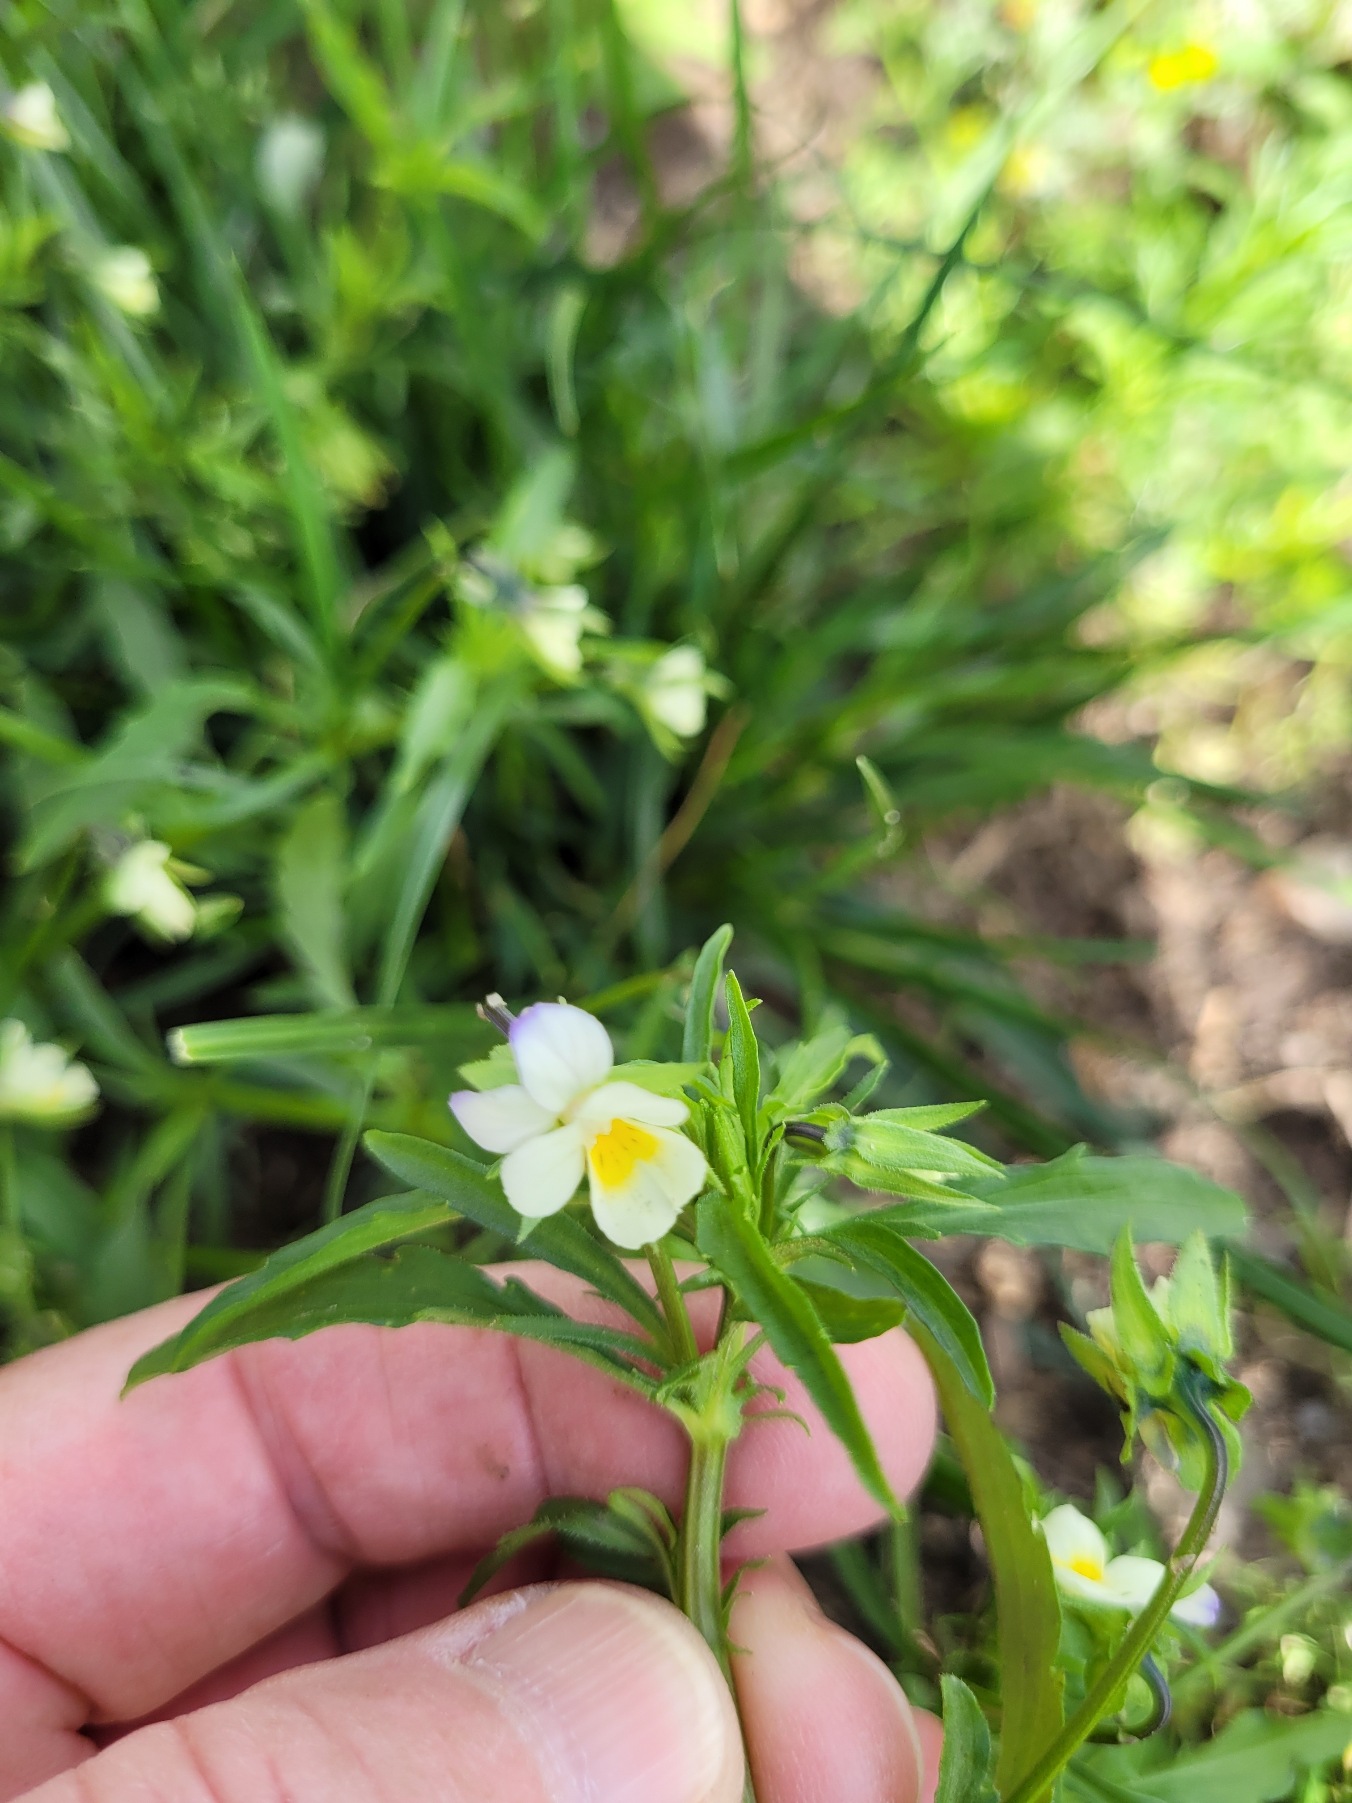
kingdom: Plantae
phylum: Tracheophyta
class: Magnoliopsida
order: Malpighiales
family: Violaceae
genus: Viola
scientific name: Viola arvensis
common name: Ager-stedmoderblomst
